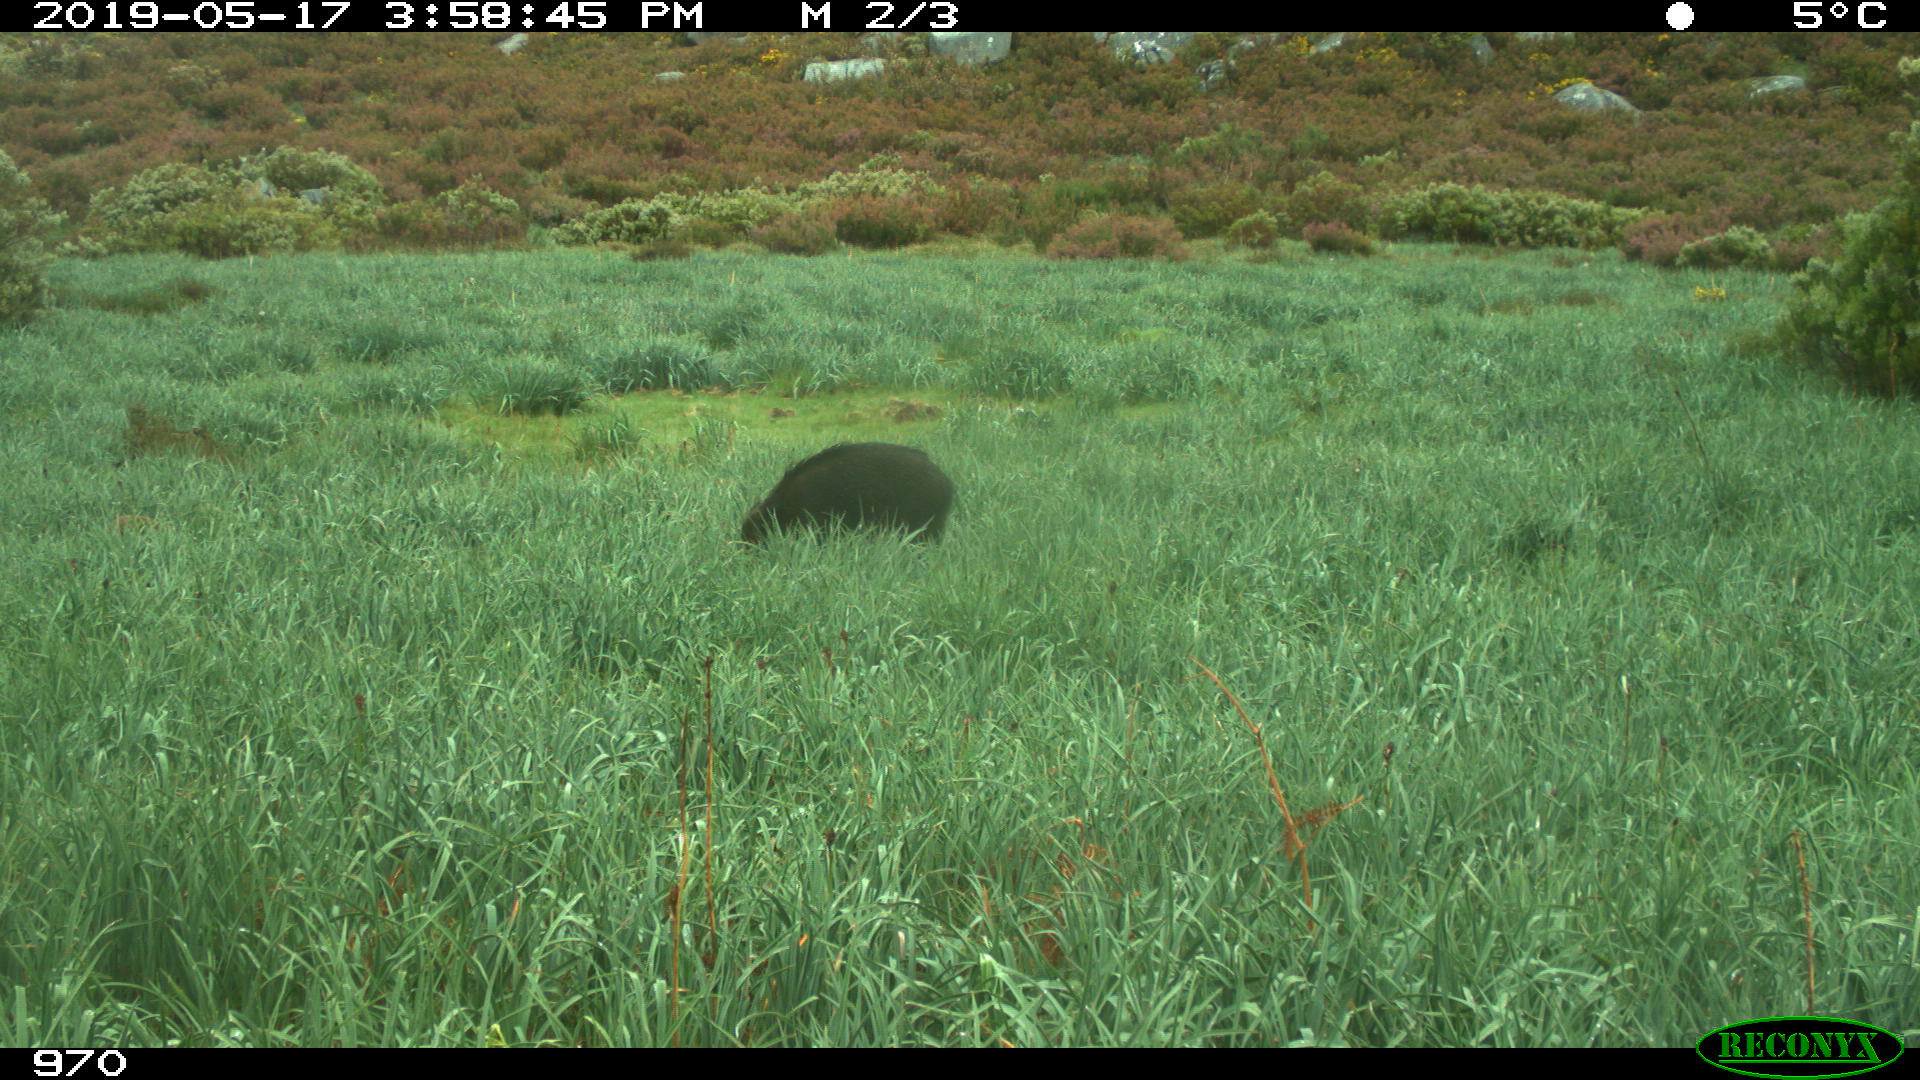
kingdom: Animalia
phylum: Chordata
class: Mammalia
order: Artiodactyla
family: Suidae
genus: Sus
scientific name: Sus scrofa
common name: Wild boar
